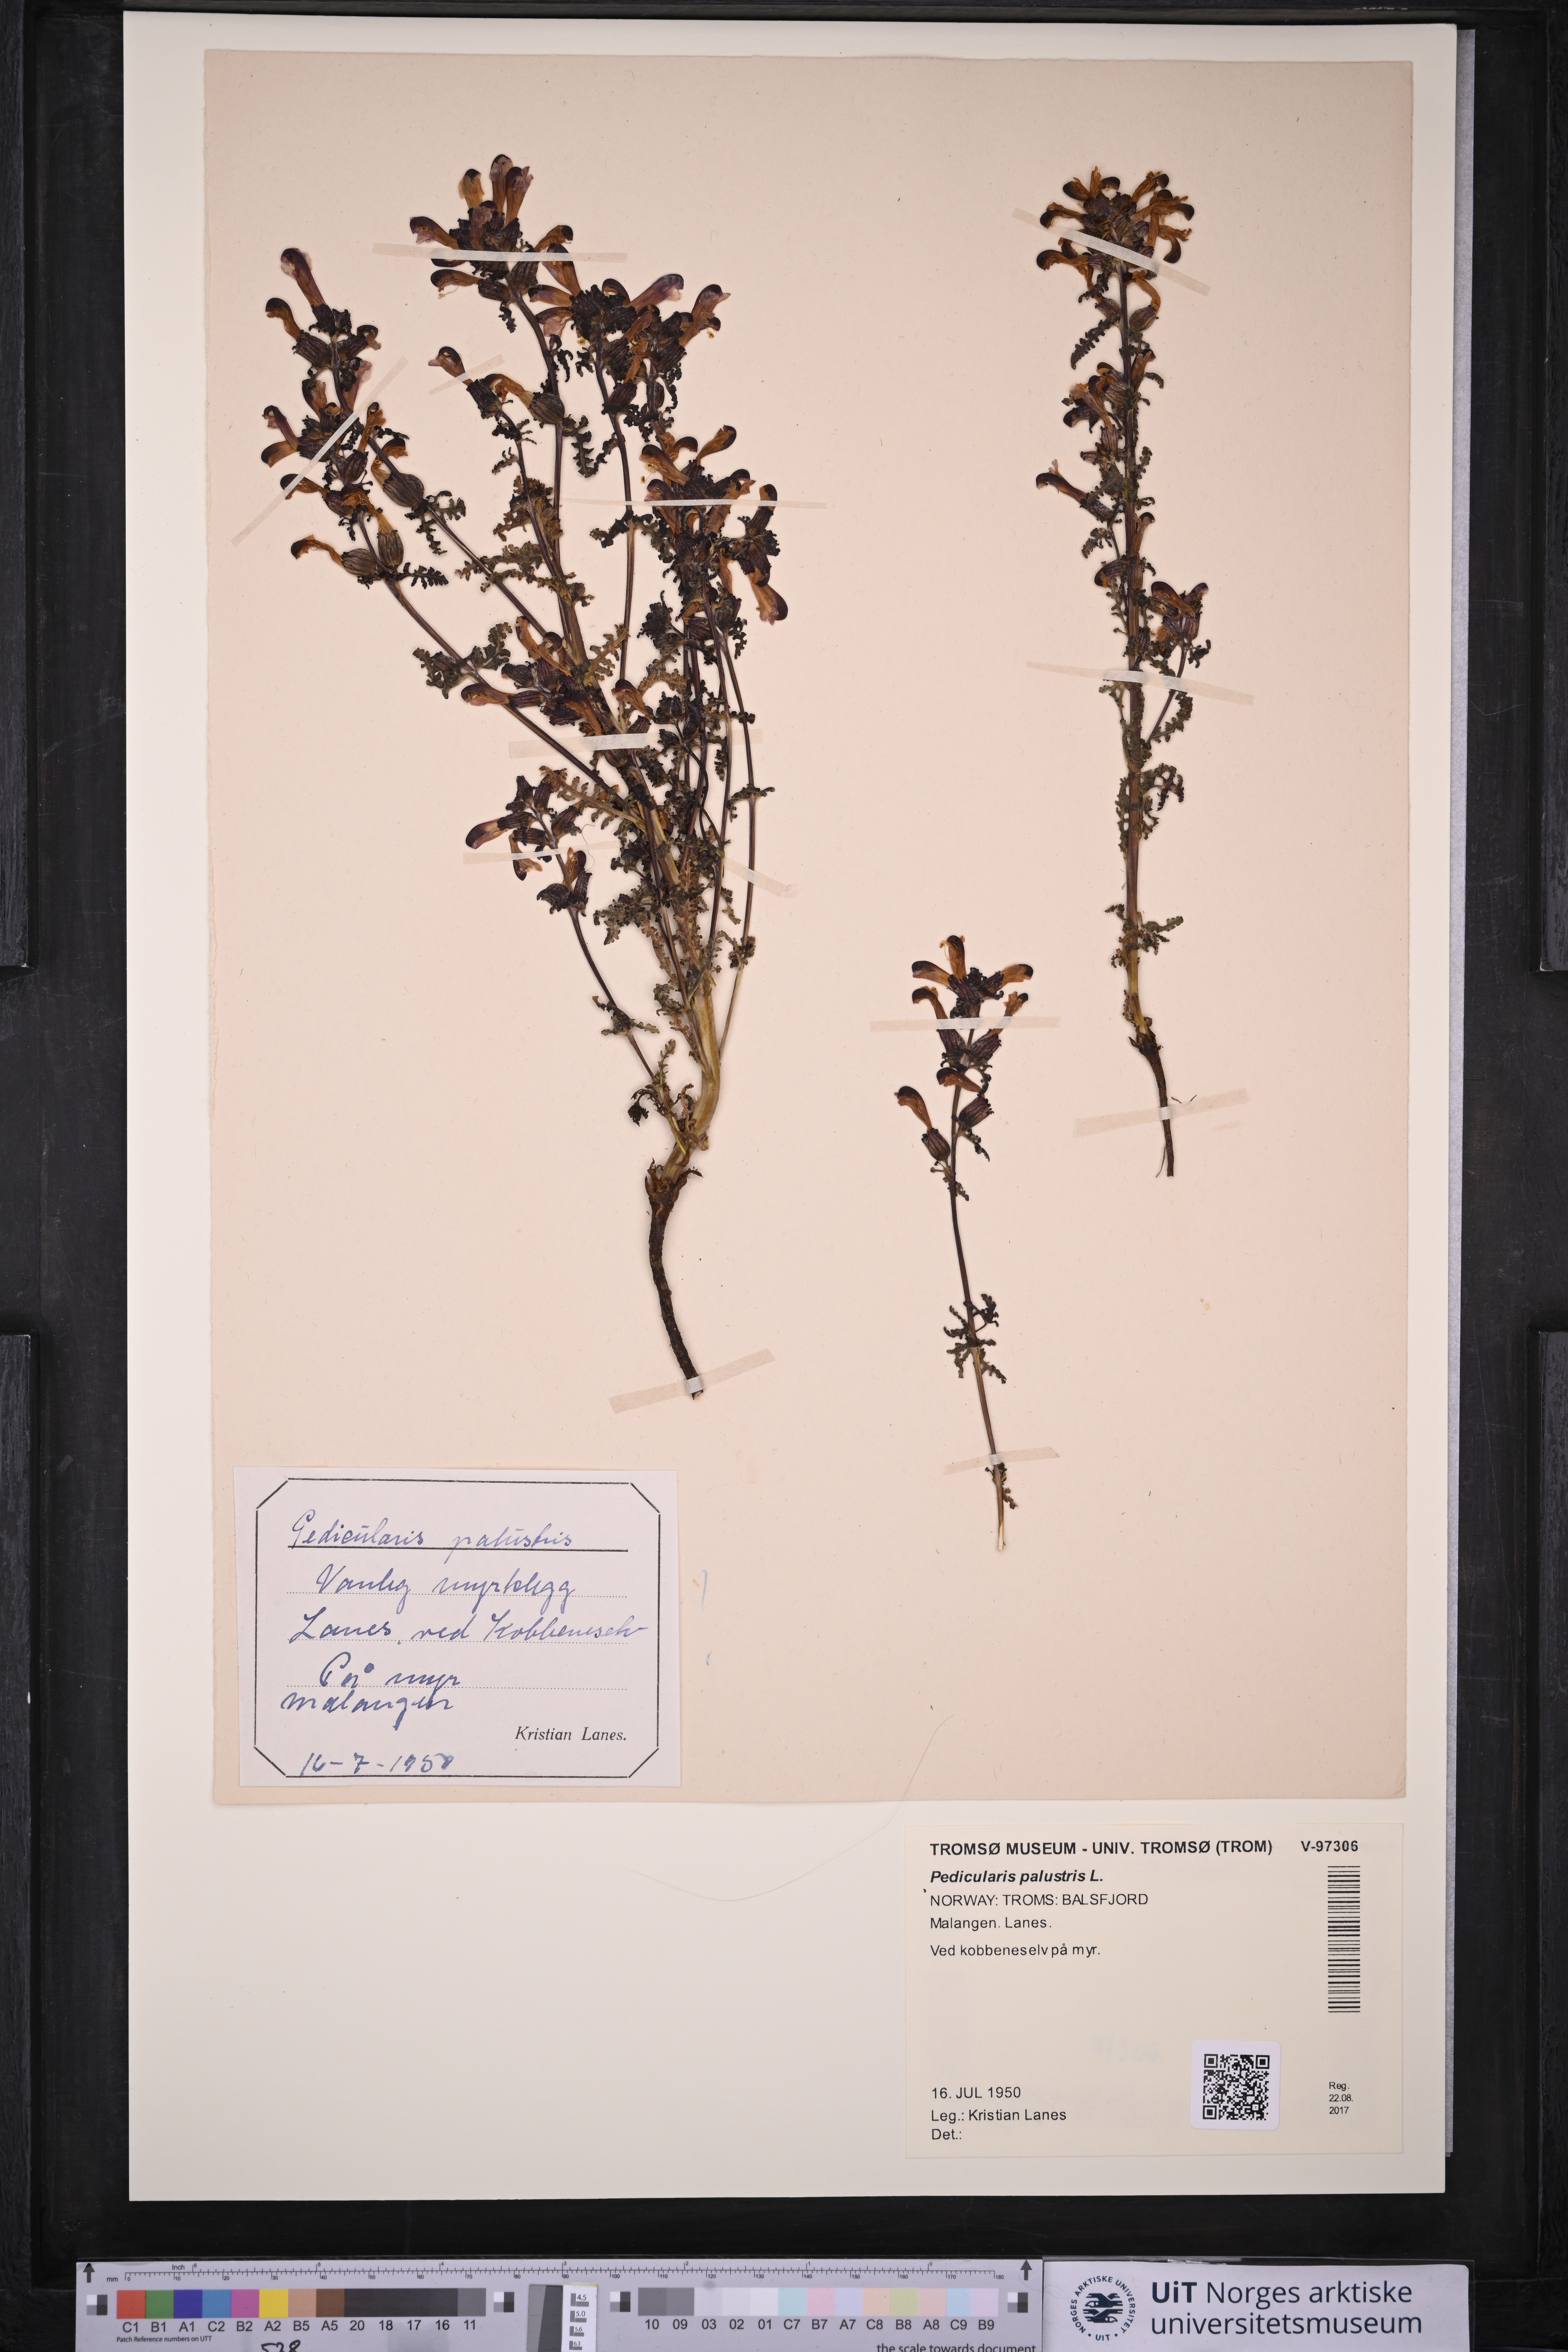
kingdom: Plantae
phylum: Tracheophyta
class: Magnoliopsida
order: Lamiales
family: Orobanchaceae
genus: Pedicularis
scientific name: Pedicularis palustris
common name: Marsh lousewort
